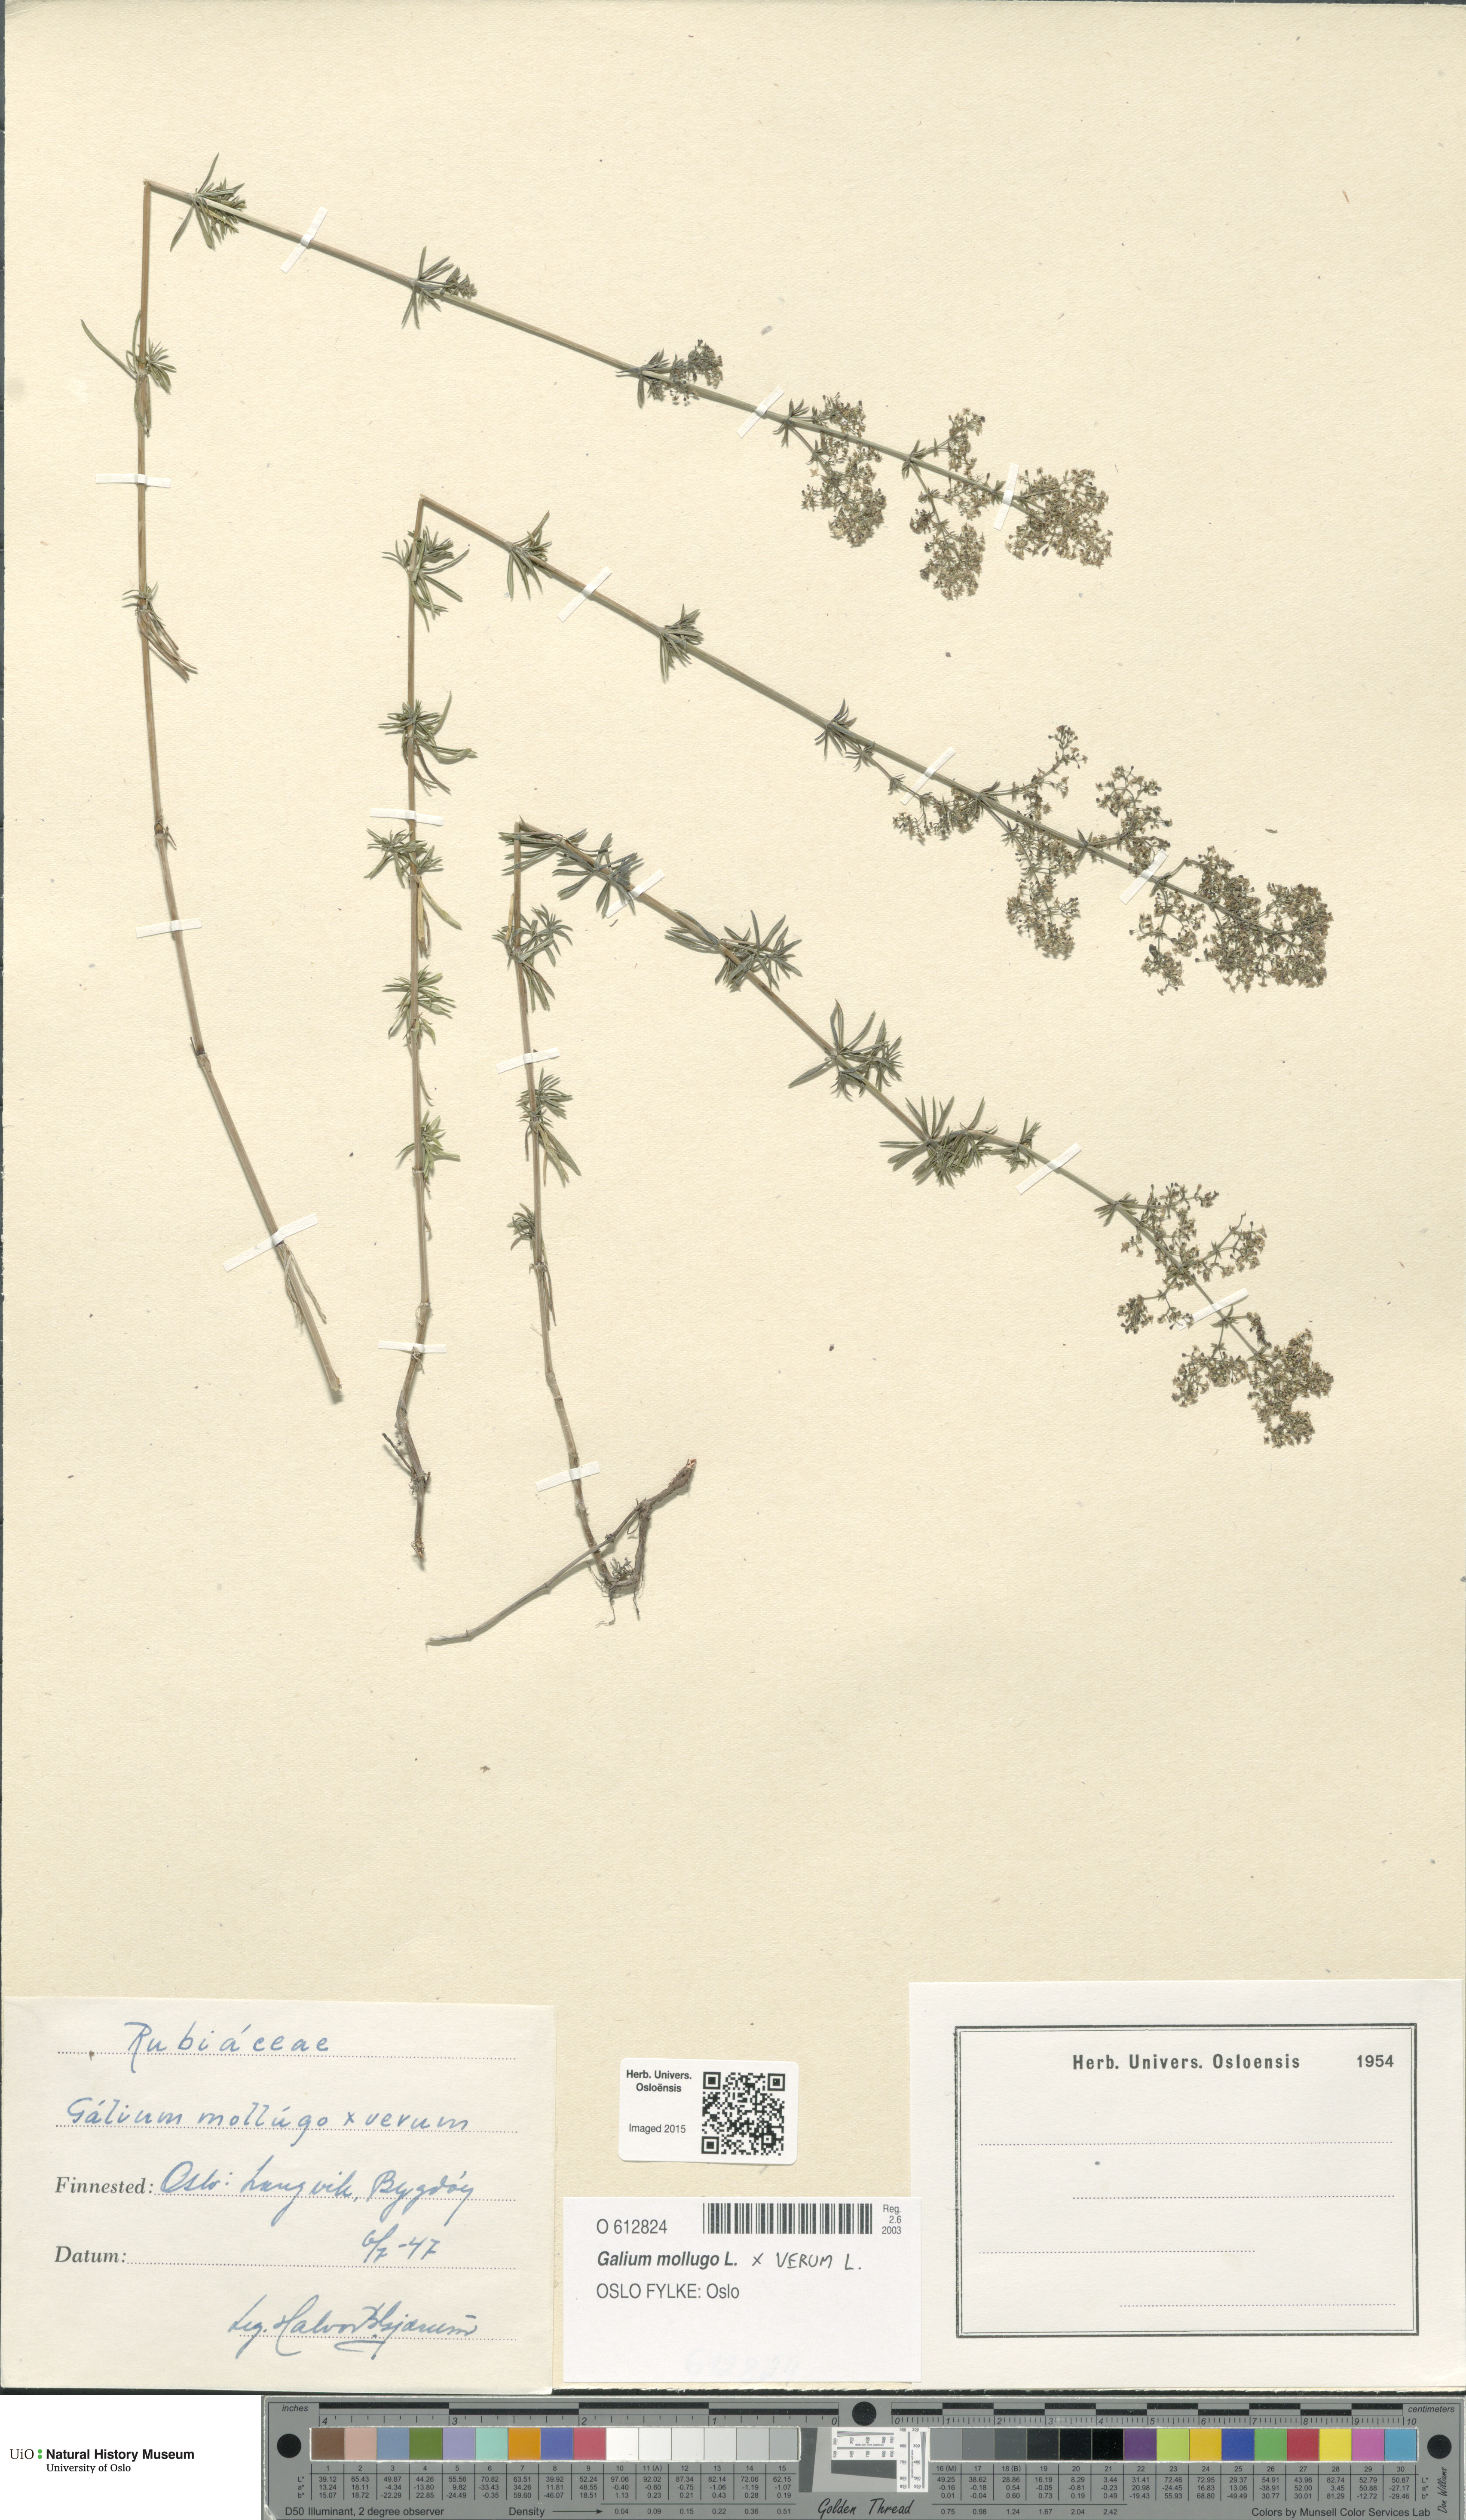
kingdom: Plantae
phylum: Tracheophyta
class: Magnoliopsida
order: Gentianales
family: Rubiaceae
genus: Galium
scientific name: Galium
